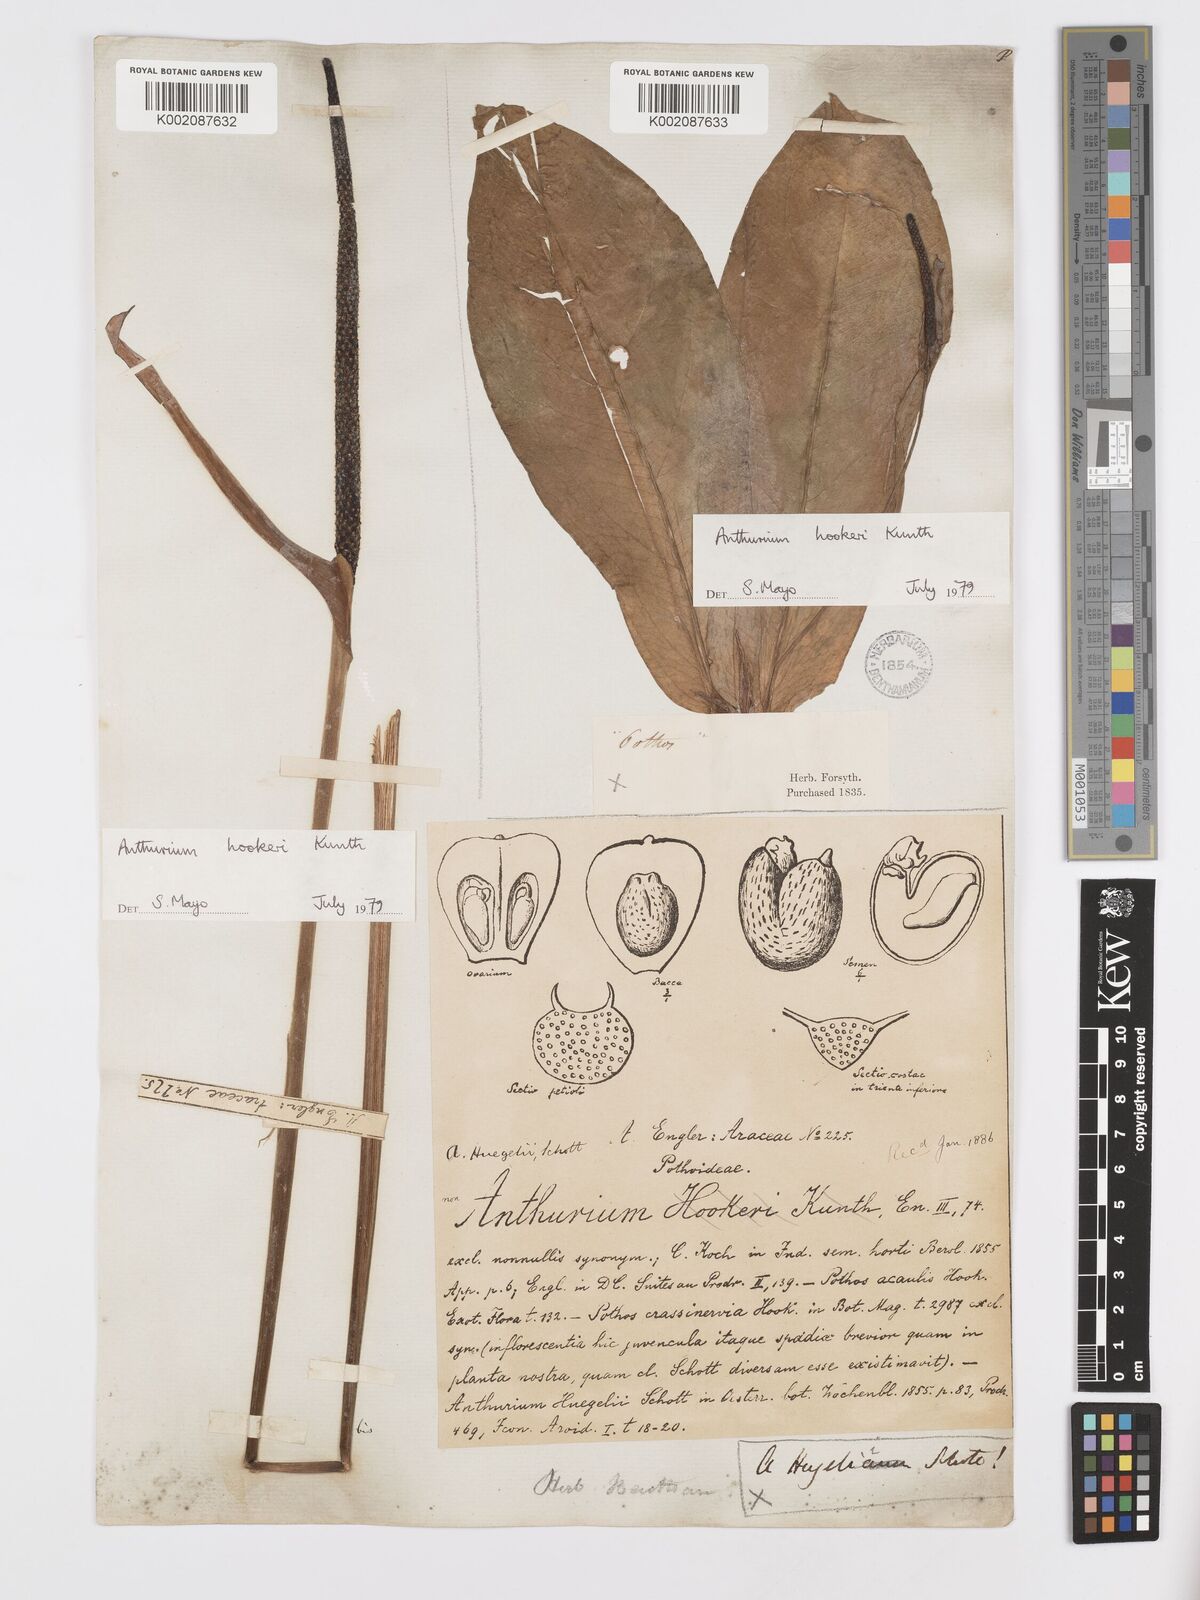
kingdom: Plantae
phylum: Tracheophyta
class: Liliopsida
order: Alismatales
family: Araceae
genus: Anthurium
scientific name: Anthurium hookeri
